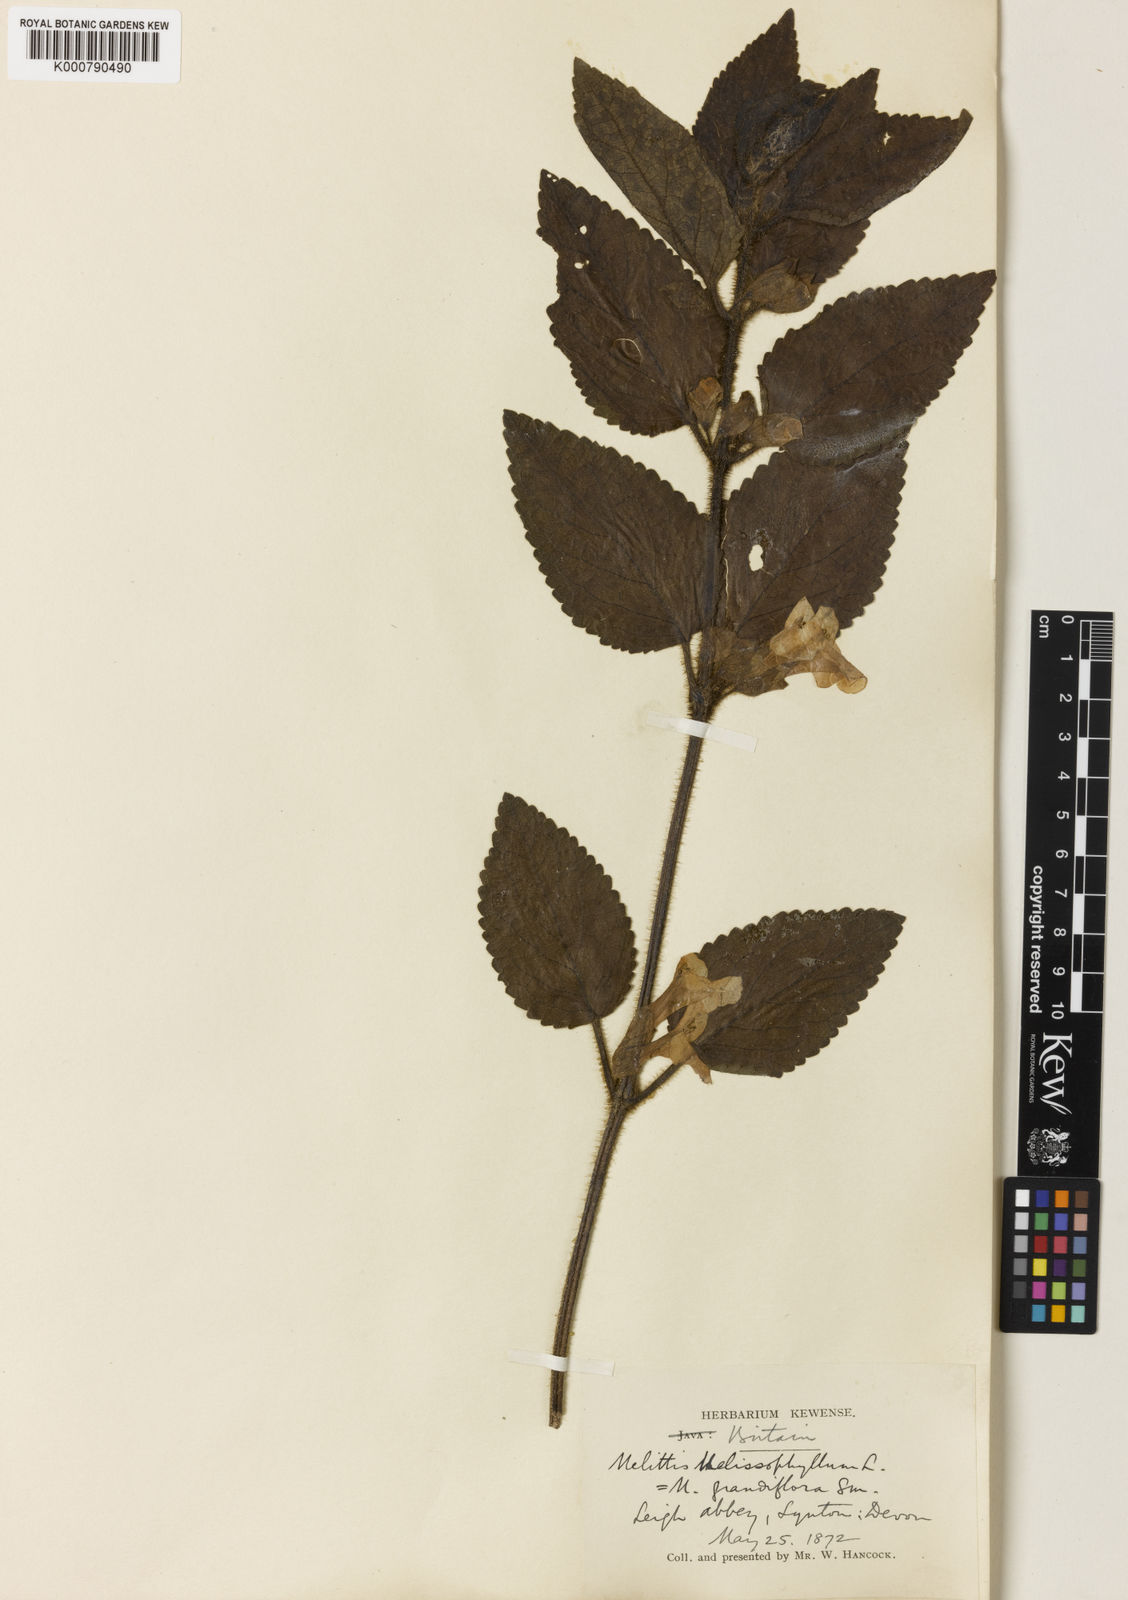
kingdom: Plantae
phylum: Tracheophyta
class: Magnoliopsida
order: Lamiales
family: Lamiaceae
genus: Melittis
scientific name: Melittis melissophyllum
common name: Bastard balm
